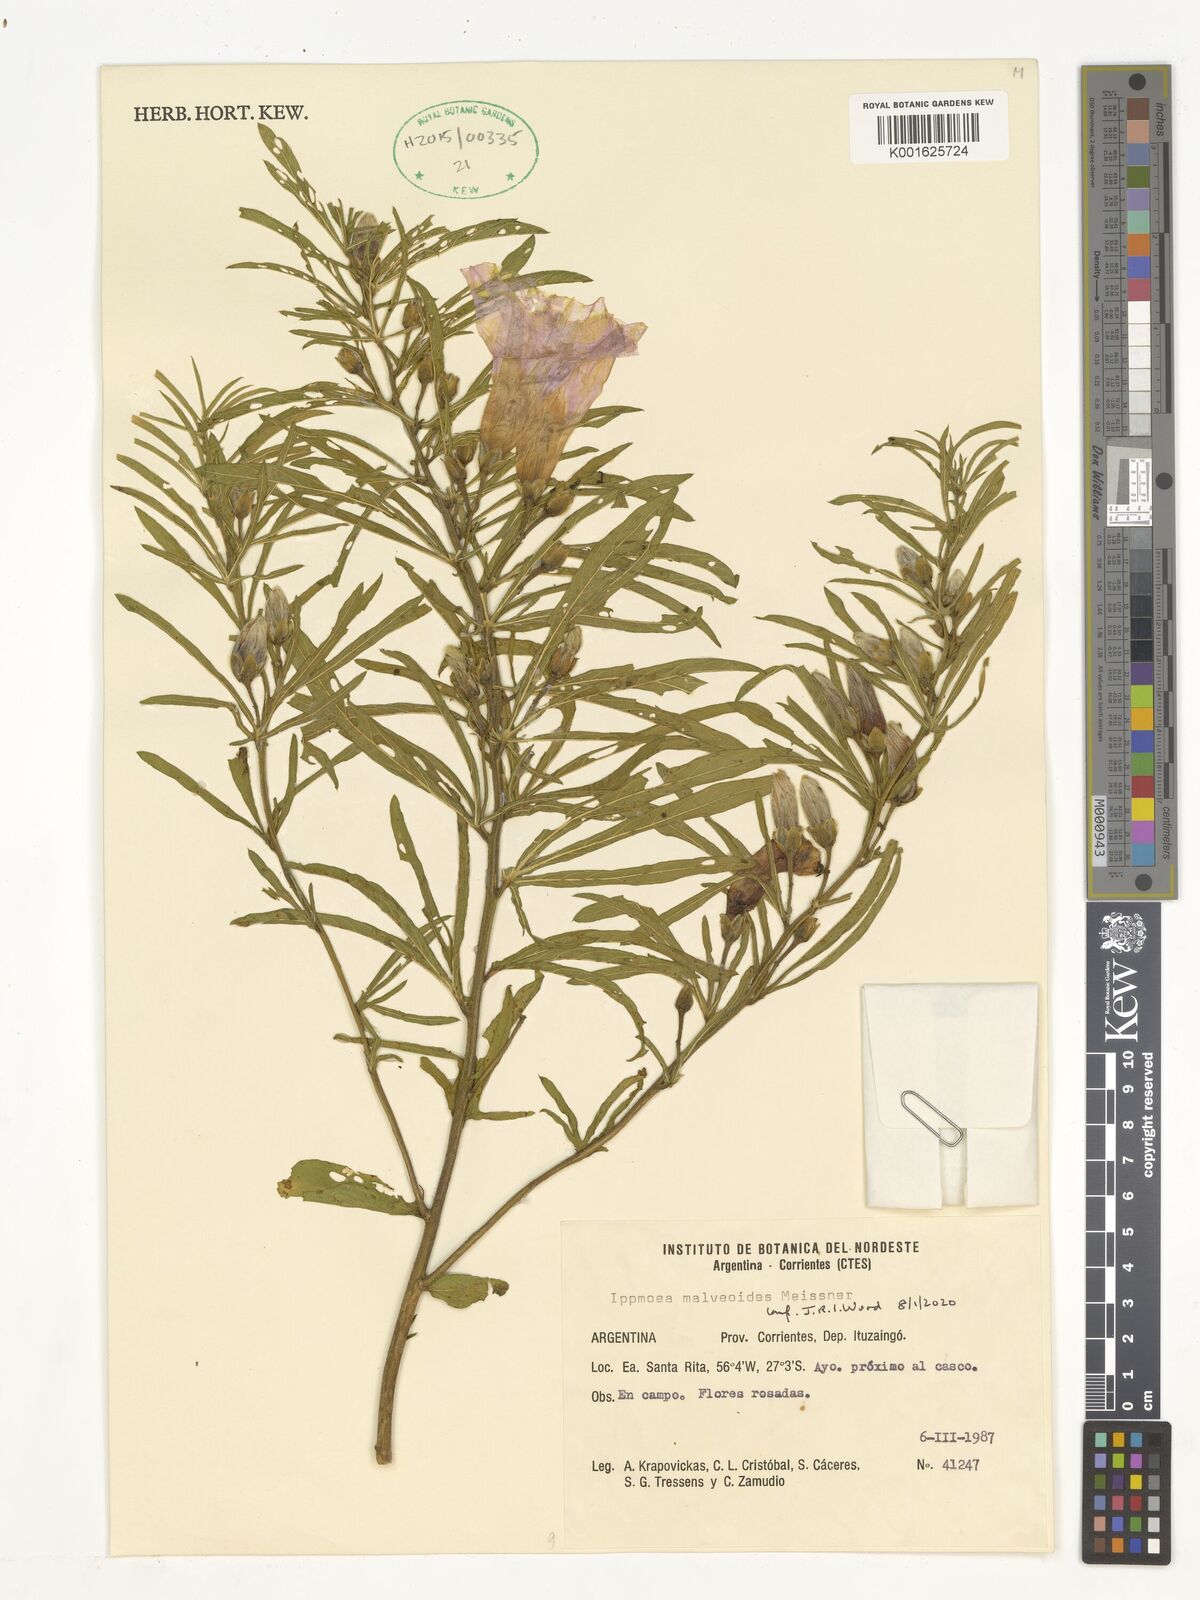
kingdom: Plantae
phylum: Tracheophyta
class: Magnoliopsida
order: Solanales
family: Convolvulaceae
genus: Ipomoea
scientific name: Ipomoea malvaeoides
